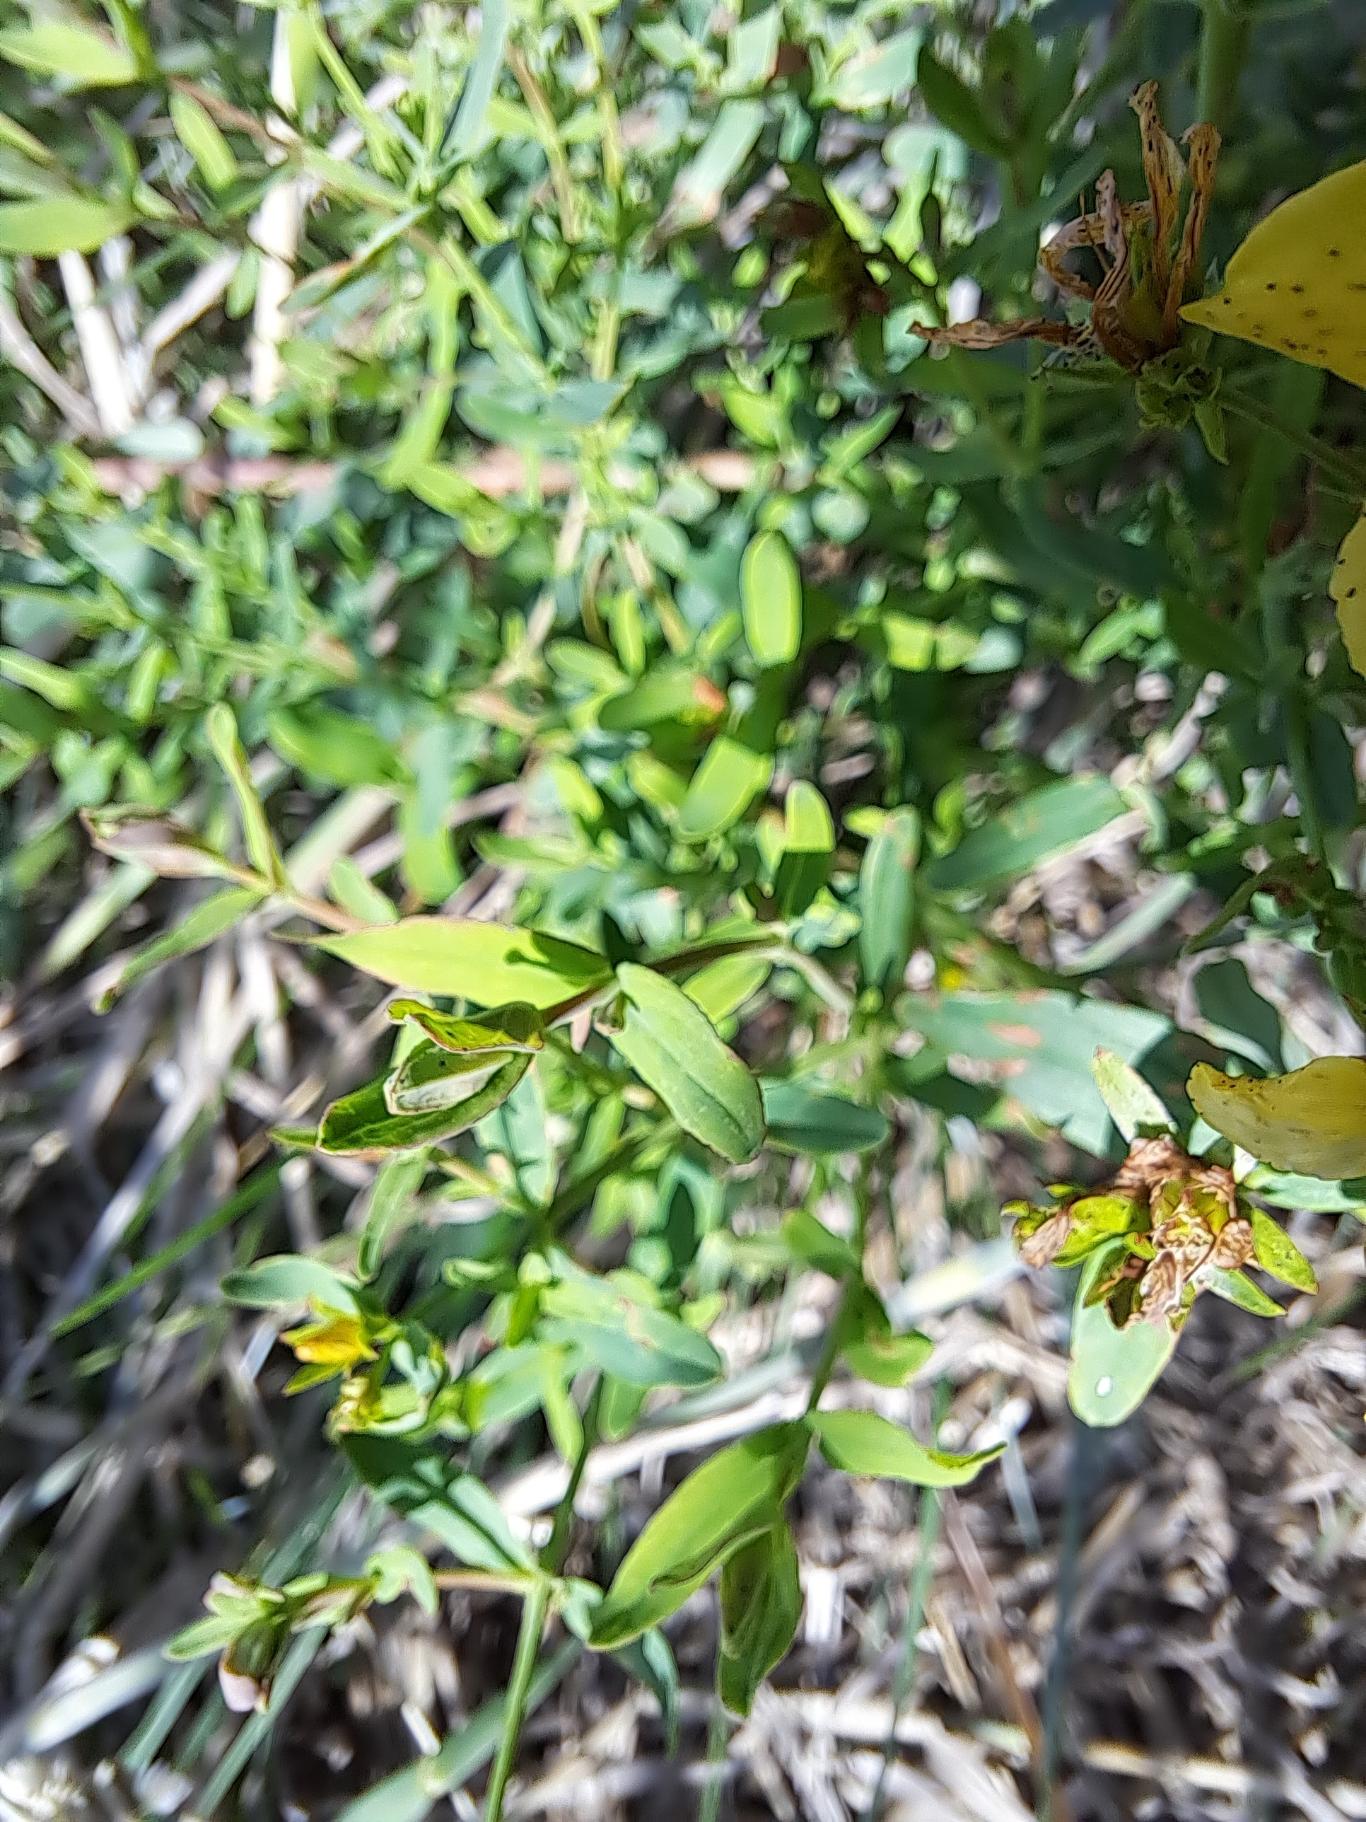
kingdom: Plantae
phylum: Tracheophyta
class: Magnoliopsida
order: Malpighiales
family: Hypericaceae
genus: Hypericum
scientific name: Hypericum perforatum
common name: Prikbladet perikon
